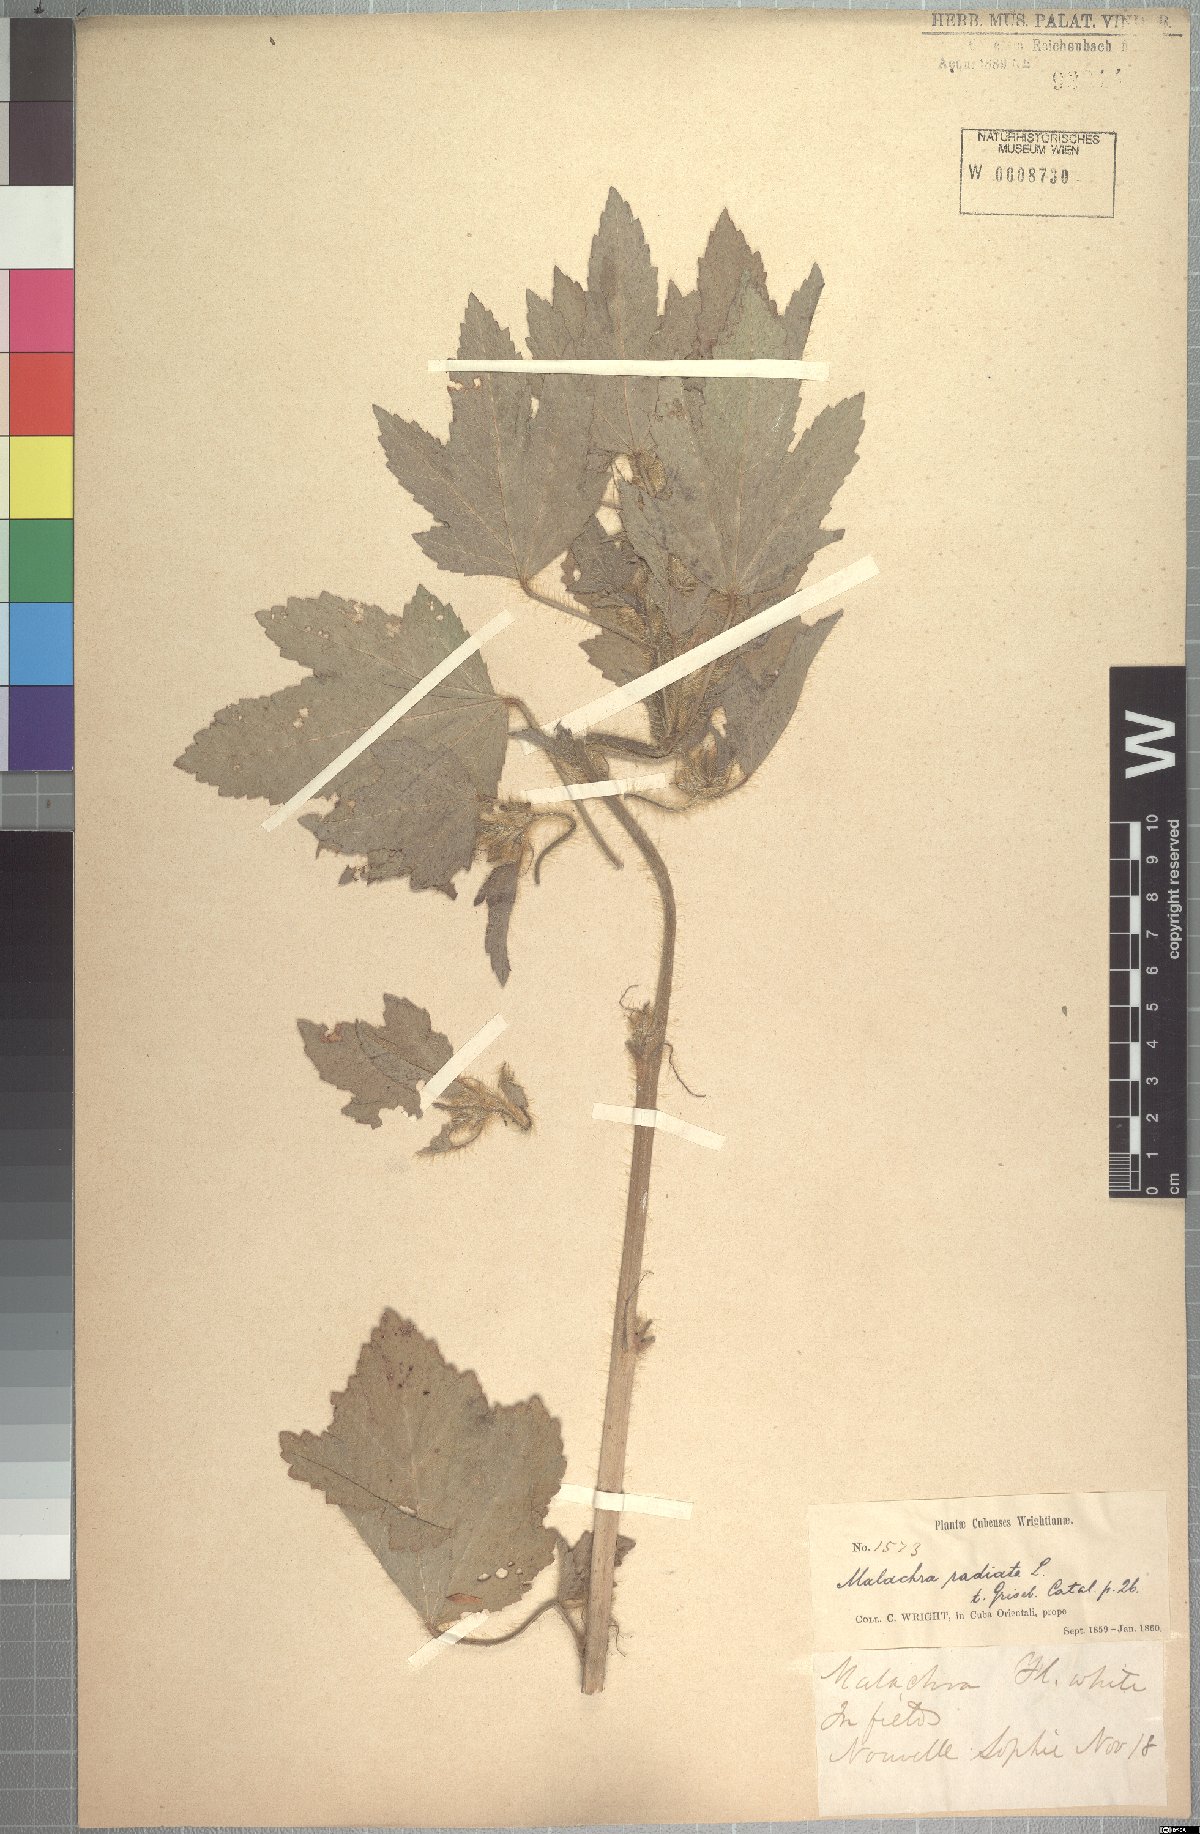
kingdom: Plantae
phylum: Tracheophyta
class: Magnoliopsida
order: Malvales
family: Malvaceae
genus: Malachra
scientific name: Malachra radiata
